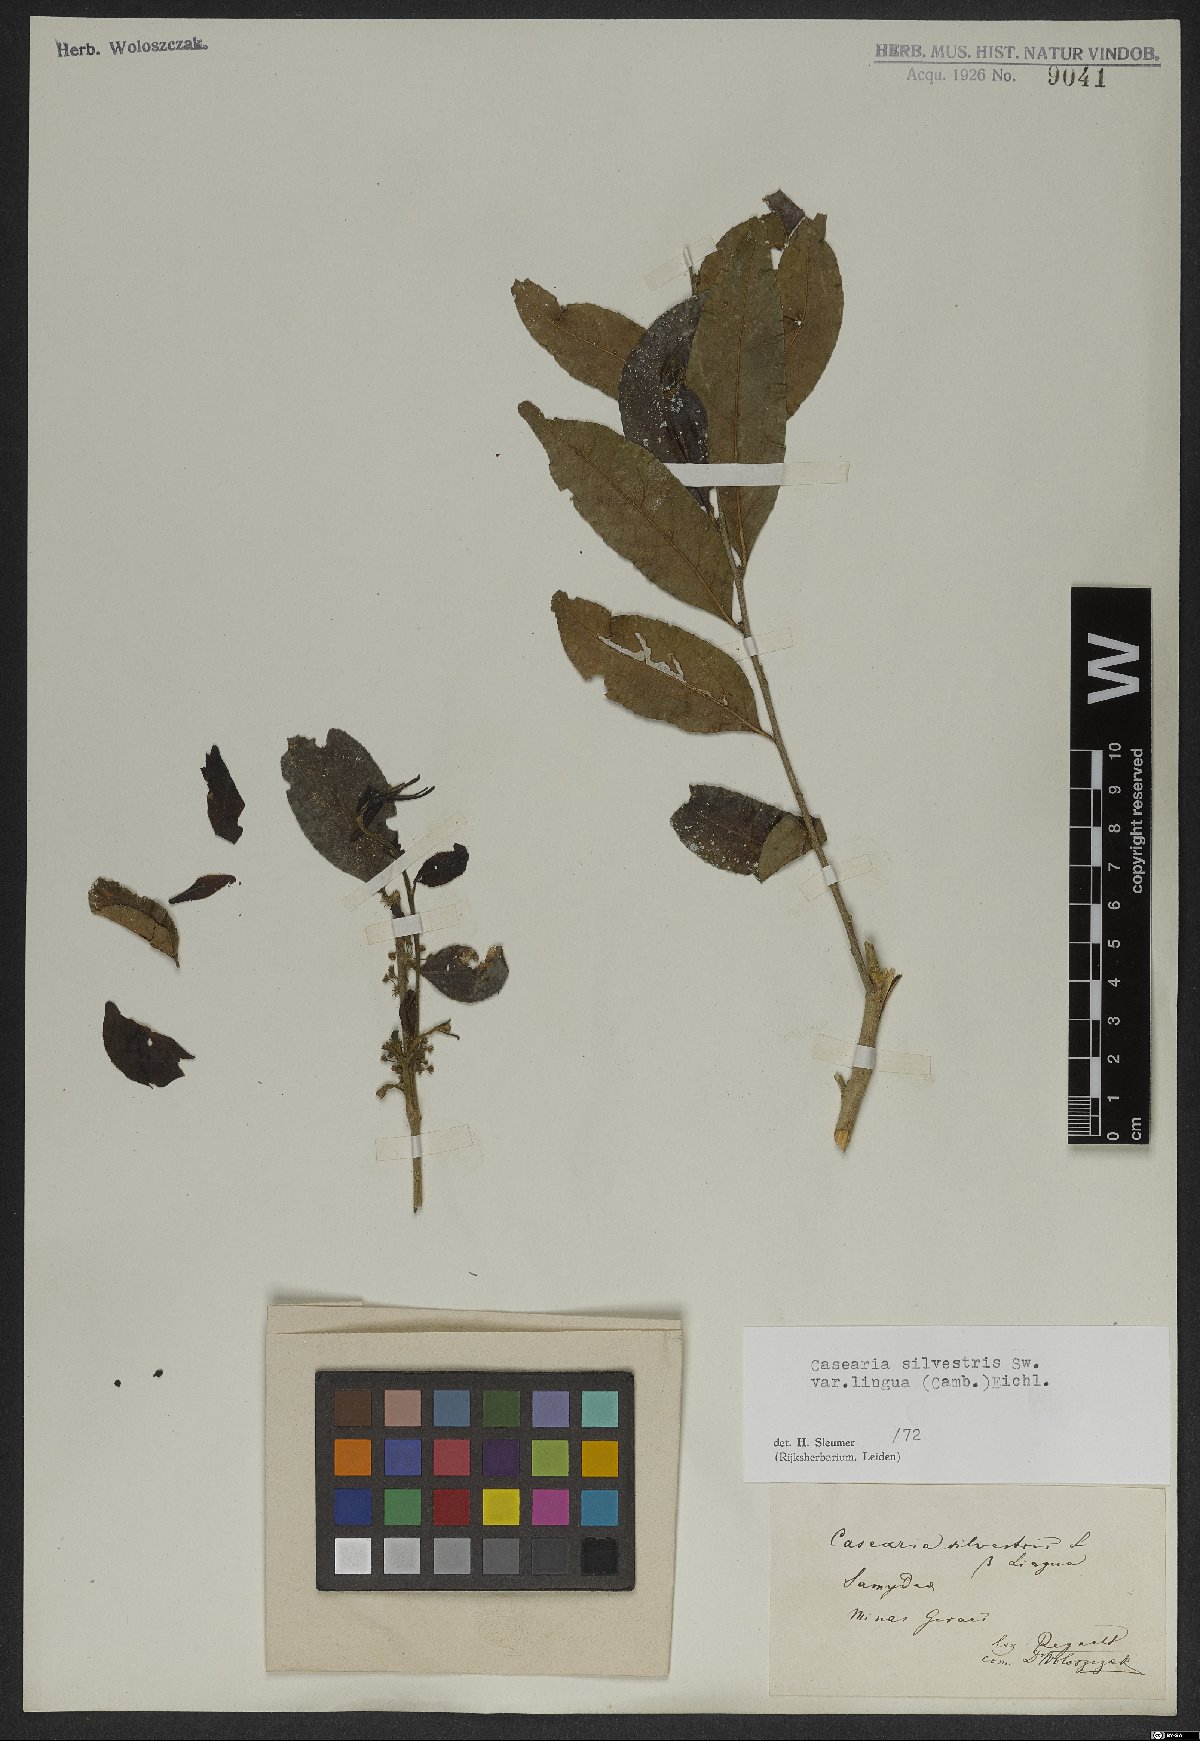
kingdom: Plantae
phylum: Tracheophyta
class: Magnoliopsida
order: Malpighiales
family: Salicaceae
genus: Casearia
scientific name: Casearia sylvestris
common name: Wild sage
